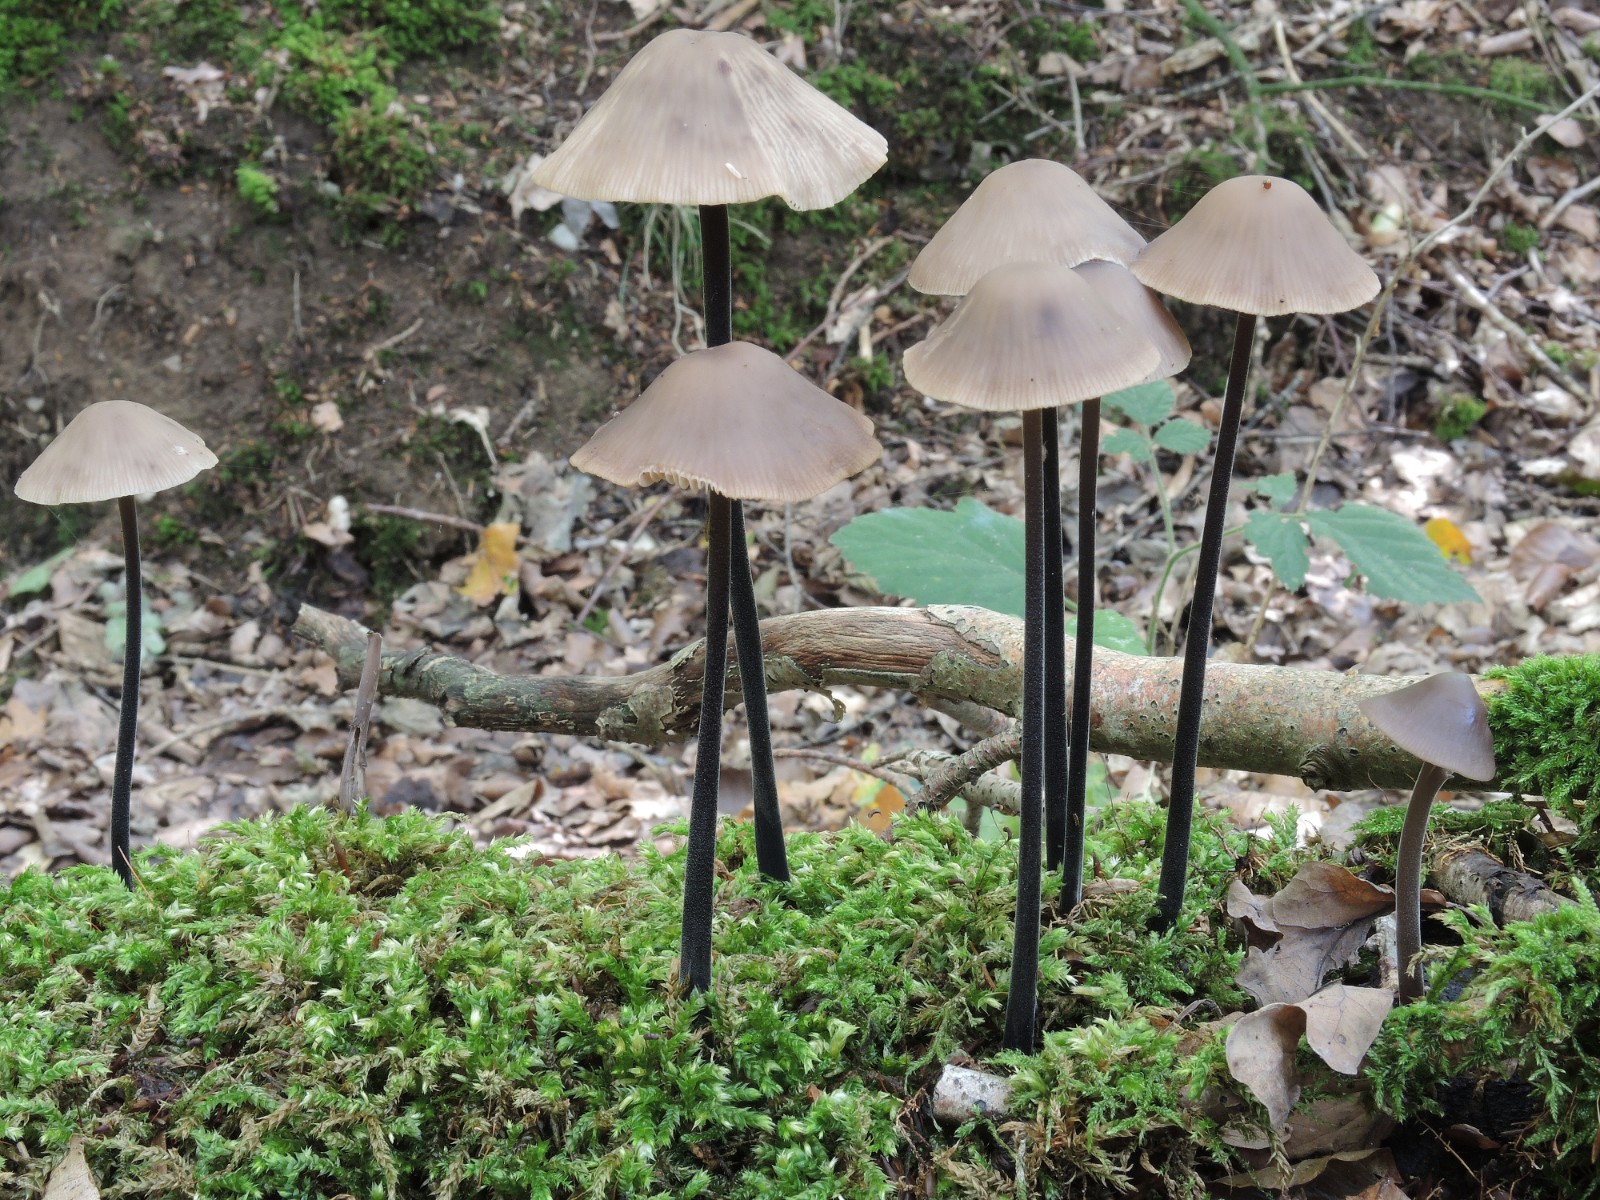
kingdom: Fungi
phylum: Basidiomycota
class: Agaricomycetes
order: Agaricales
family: Omphalotaceae
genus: Mycetinis
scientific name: Mycetinis alliaceus
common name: stor løghat
